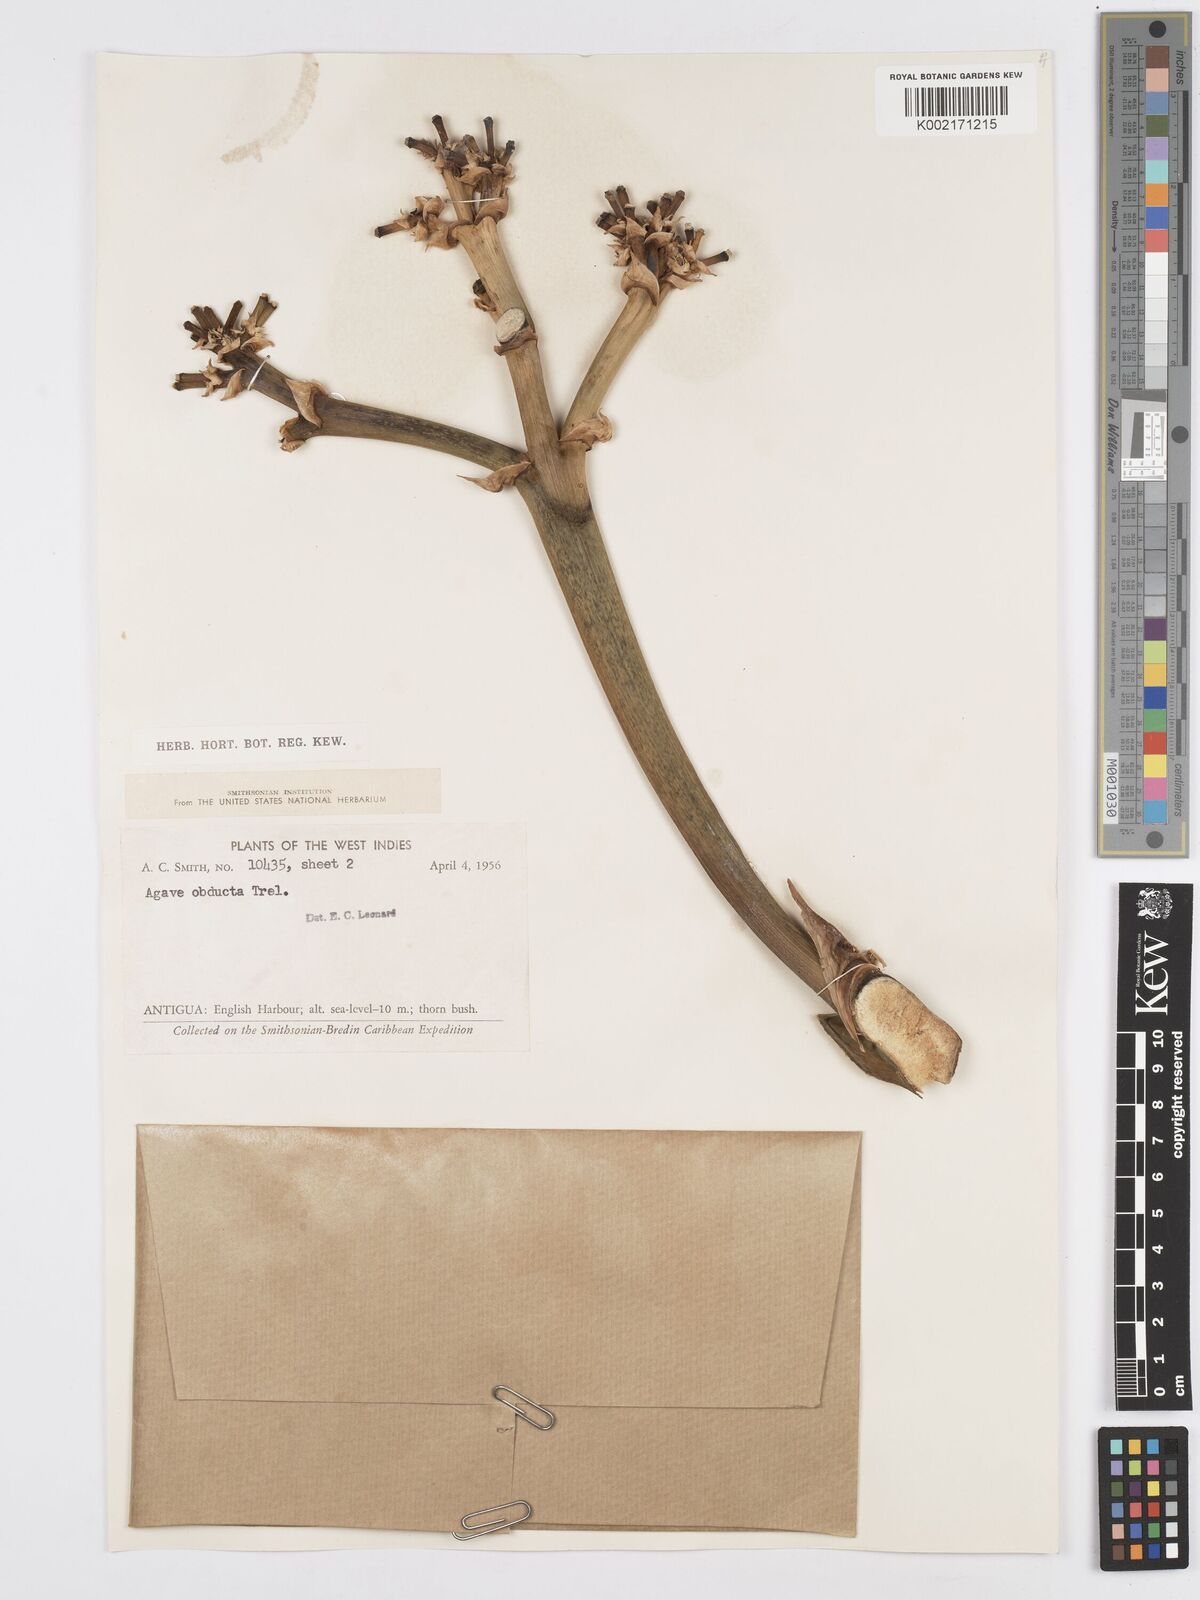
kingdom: Plantae
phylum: Tracheophyta
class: Liliopsida
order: Asparagales
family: Asparagaceae
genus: Agave
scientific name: Agave karatto
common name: Century plant
